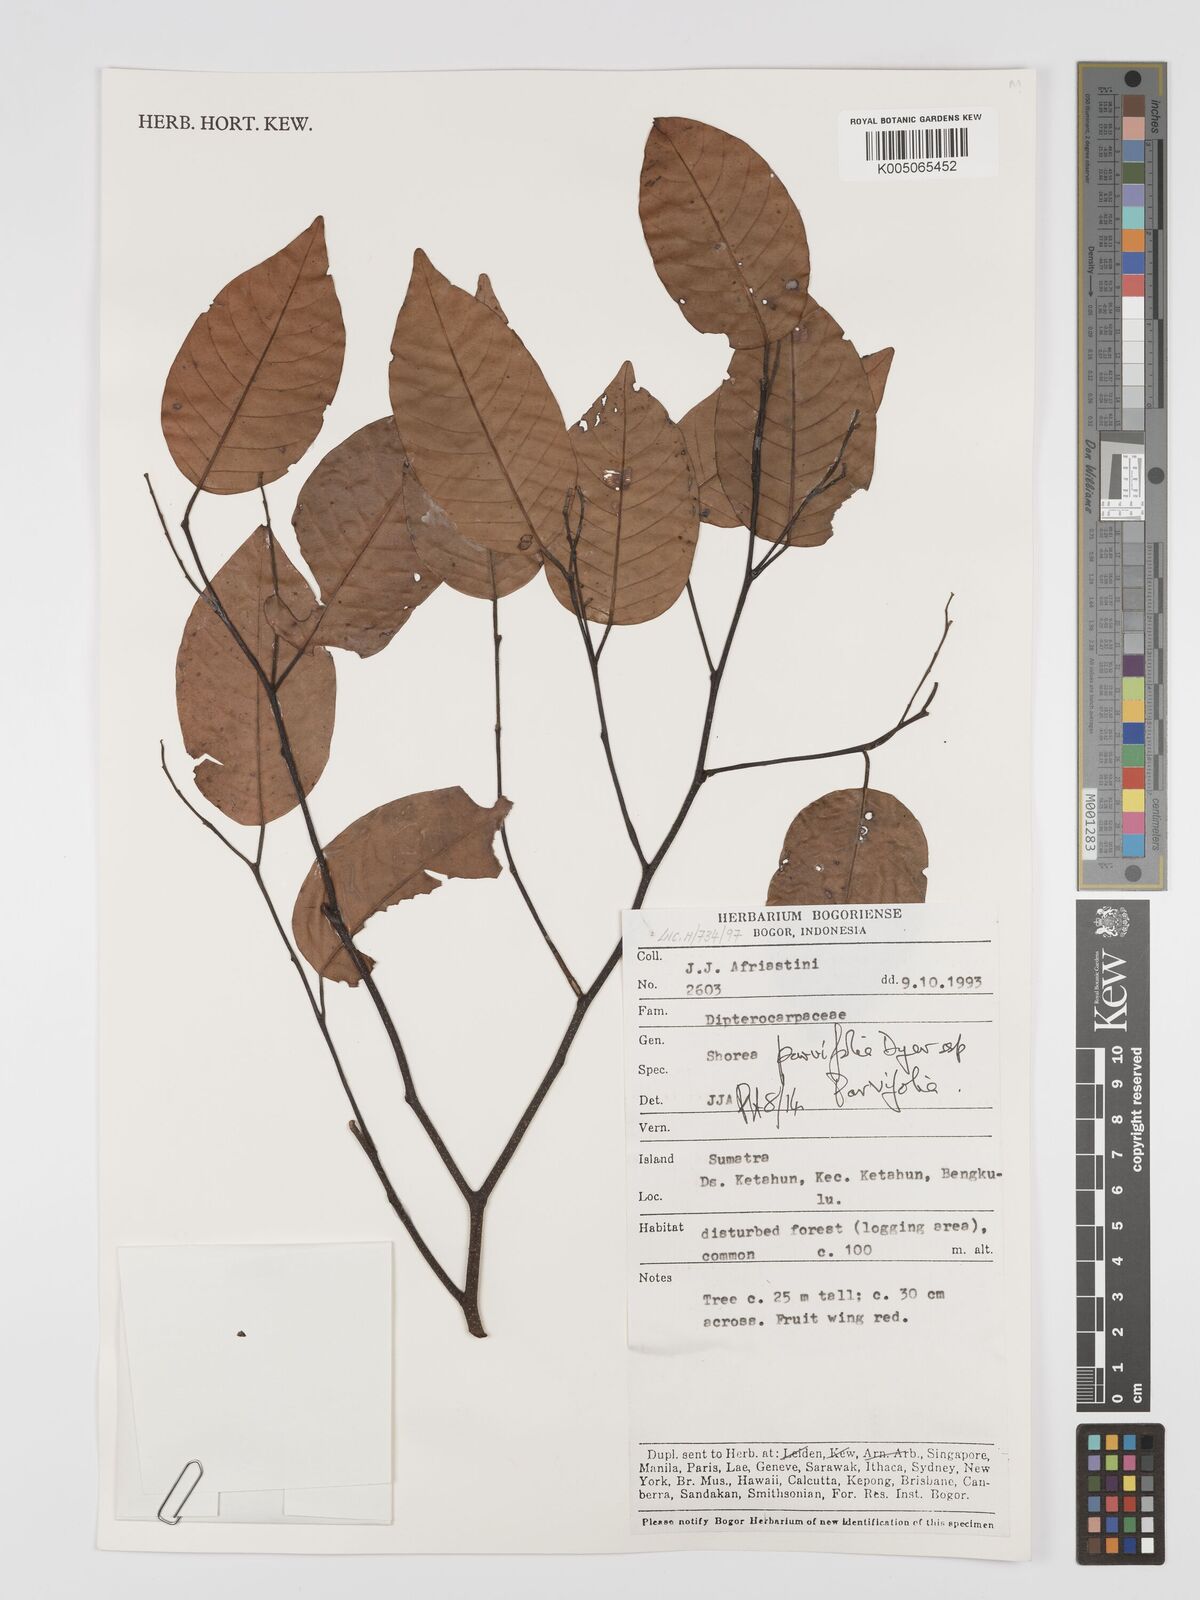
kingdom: Plantae
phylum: Tracheophyta
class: Magnoliopsida
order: Malvales
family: Dipterocarpaceae
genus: Shorea
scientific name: Shorea parvifolia
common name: Light red meranti
